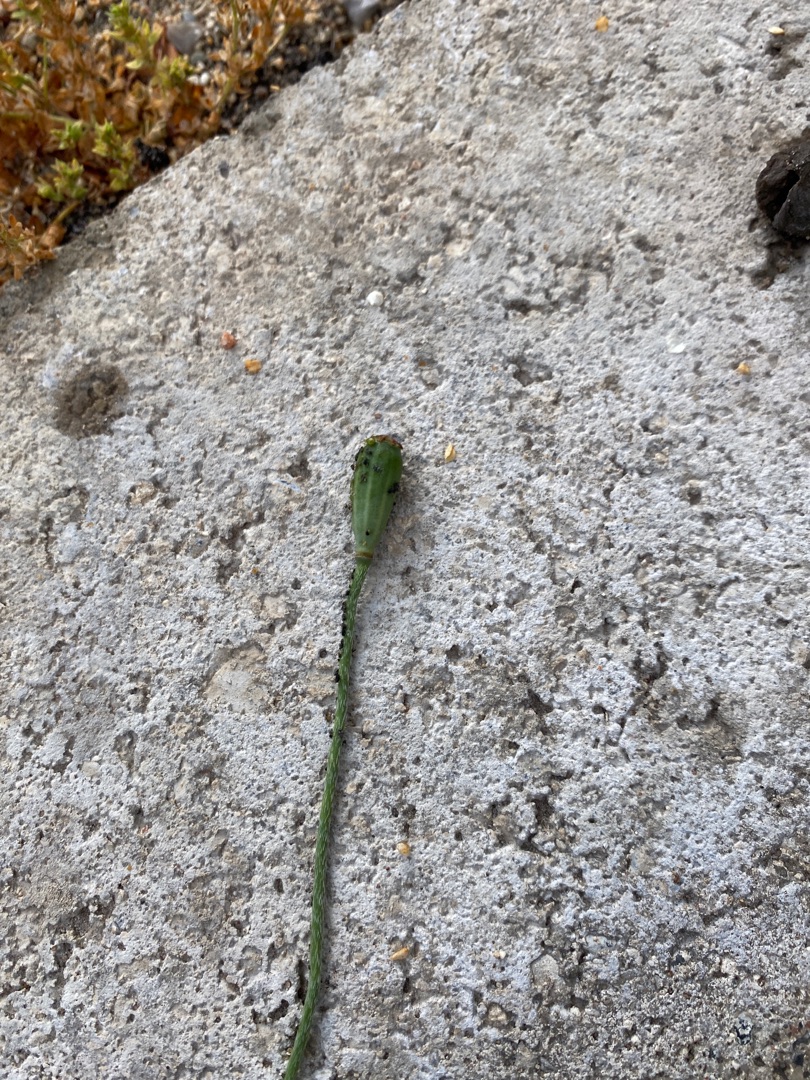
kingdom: Plantae
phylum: Tracheophyta
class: Magnoliopsida
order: Ranunculales
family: Papaveraceae
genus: Papaver
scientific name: Papaver dubium
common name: Gærde-valmue
